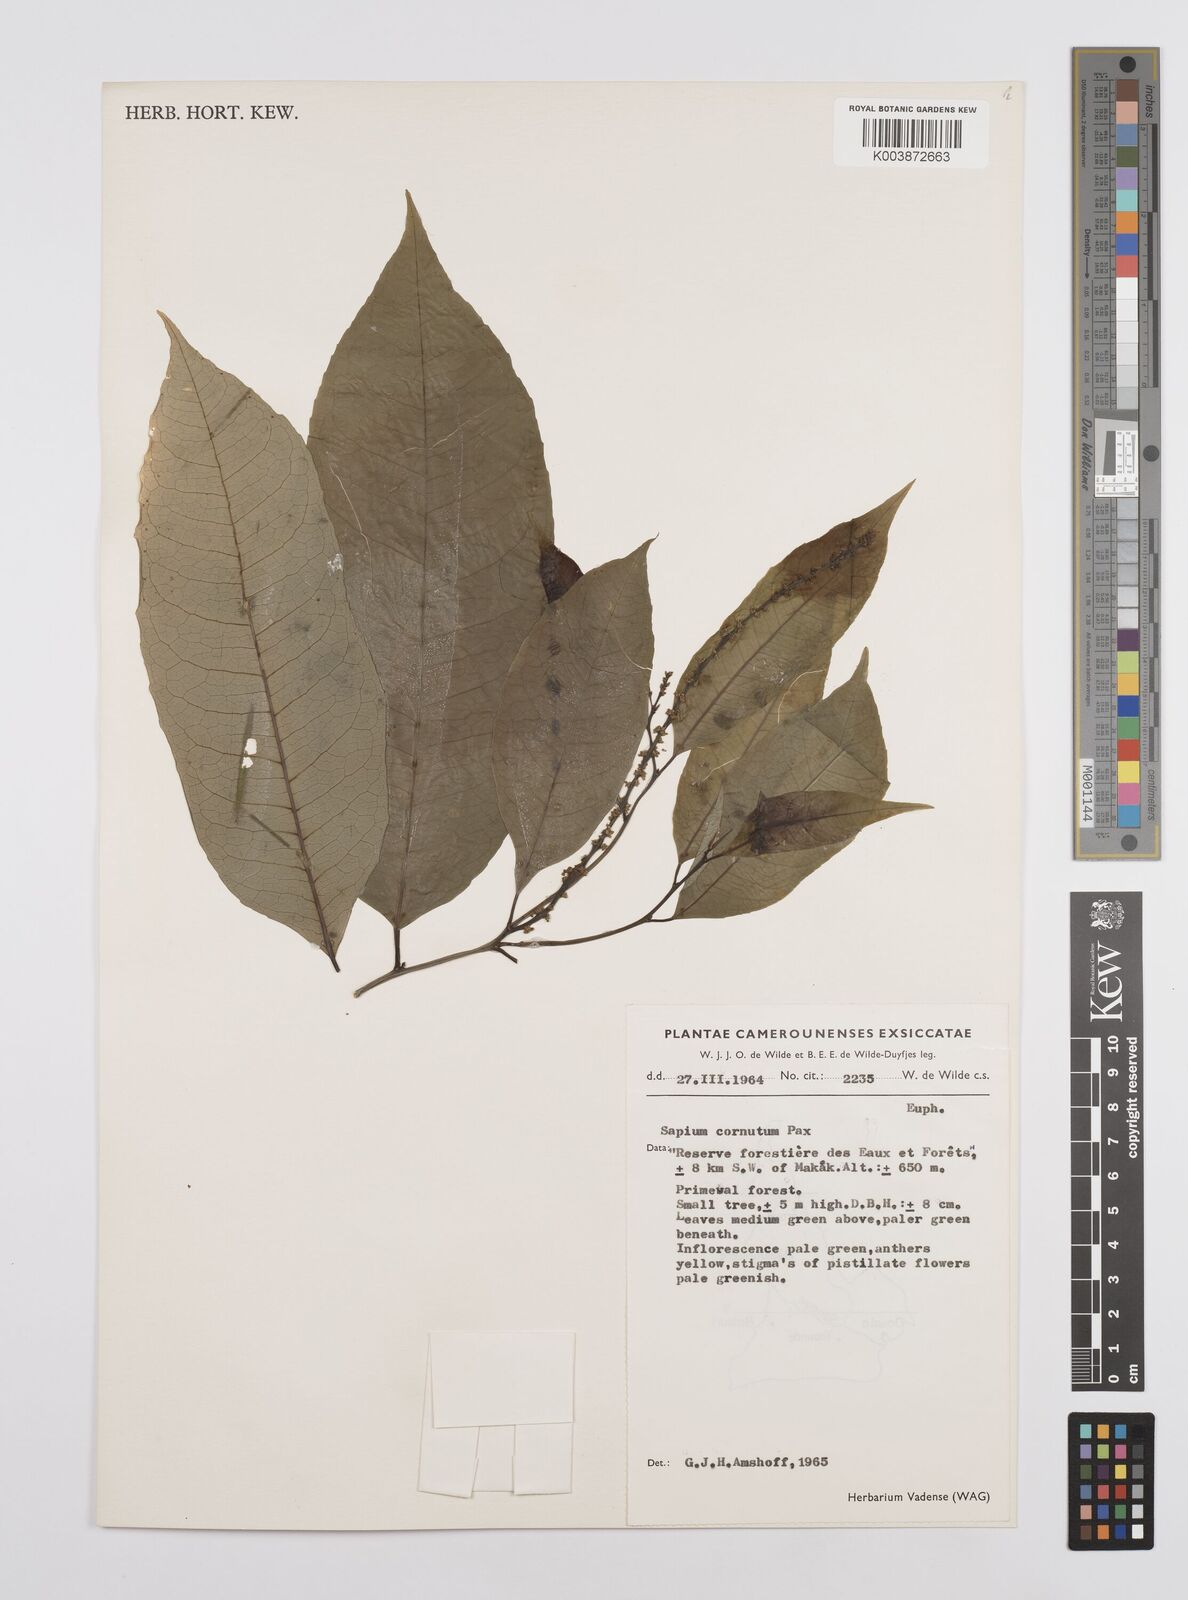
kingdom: Plantae
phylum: Tracheophyta
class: Magnoliopsida
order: Malpighiales
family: Euphorbiaceae
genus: Sclerocroton
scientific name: Sclerocroton cornutus
